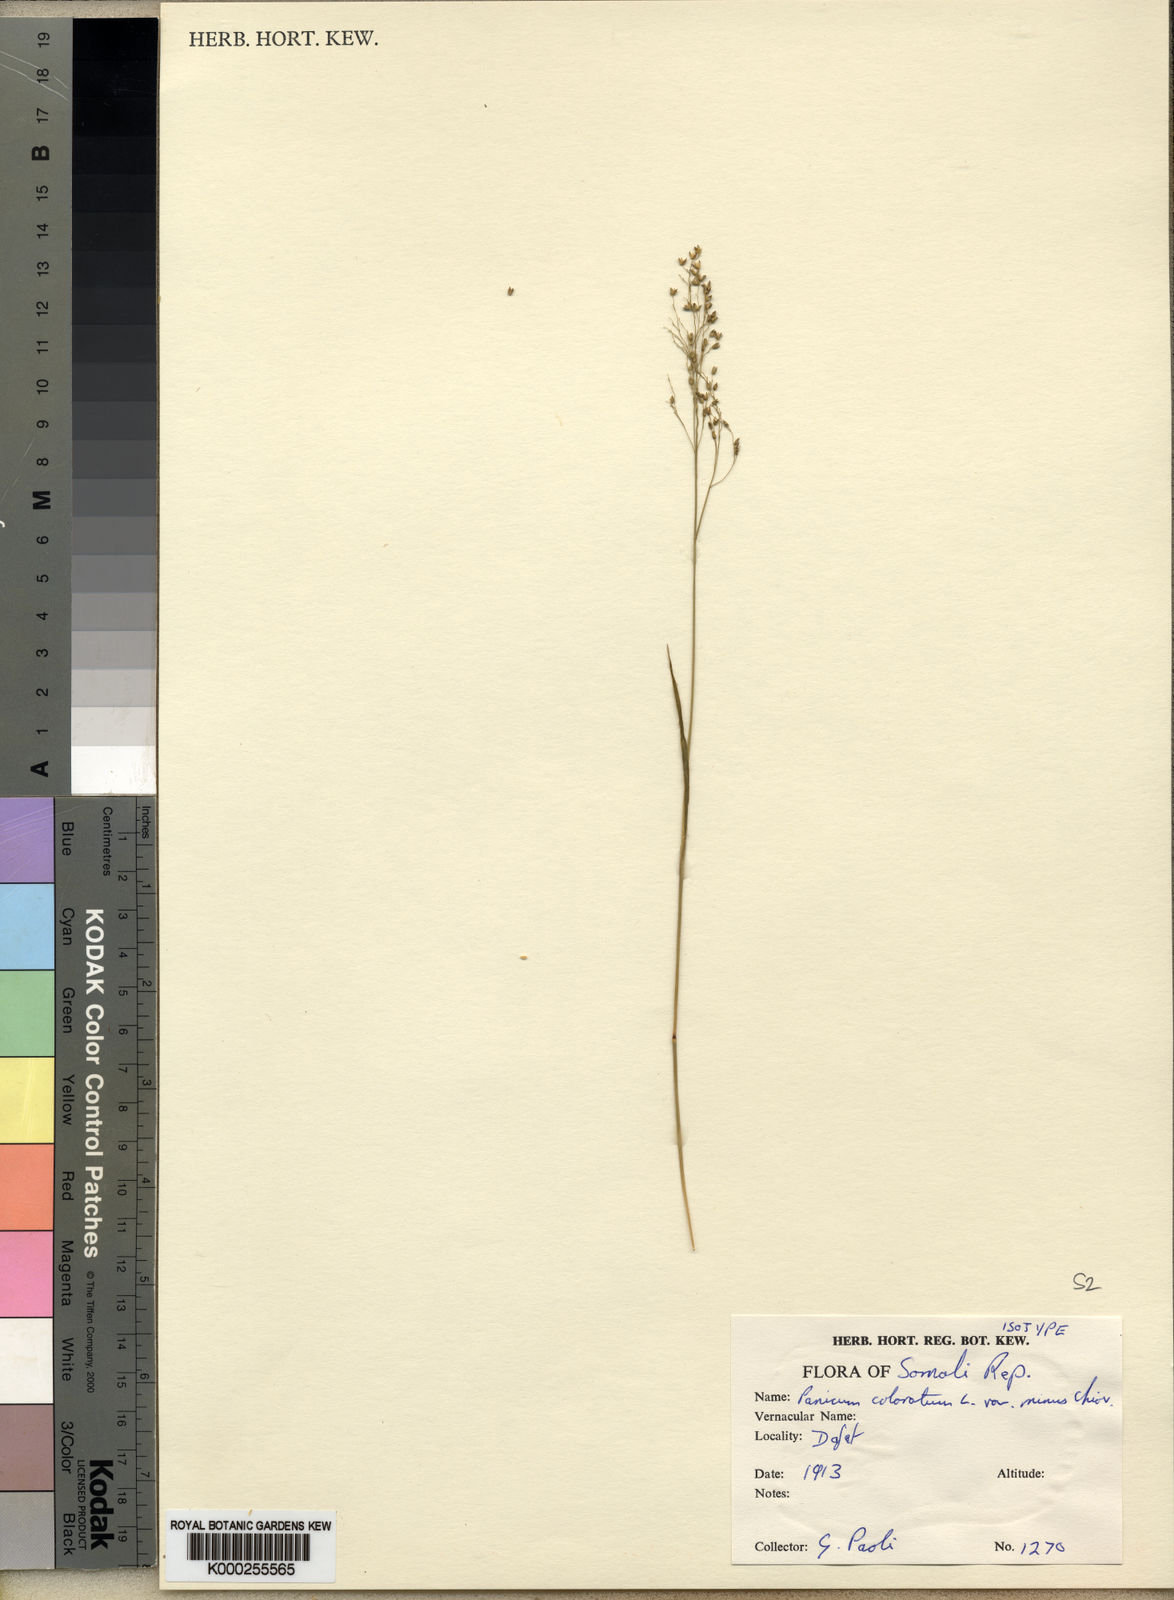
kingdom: Plantae
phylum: Tracheophyta
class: Liliopsida
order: Poales
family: Poaceae
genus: Panicum
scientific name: Panicum coloratum
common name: Kleingrass
